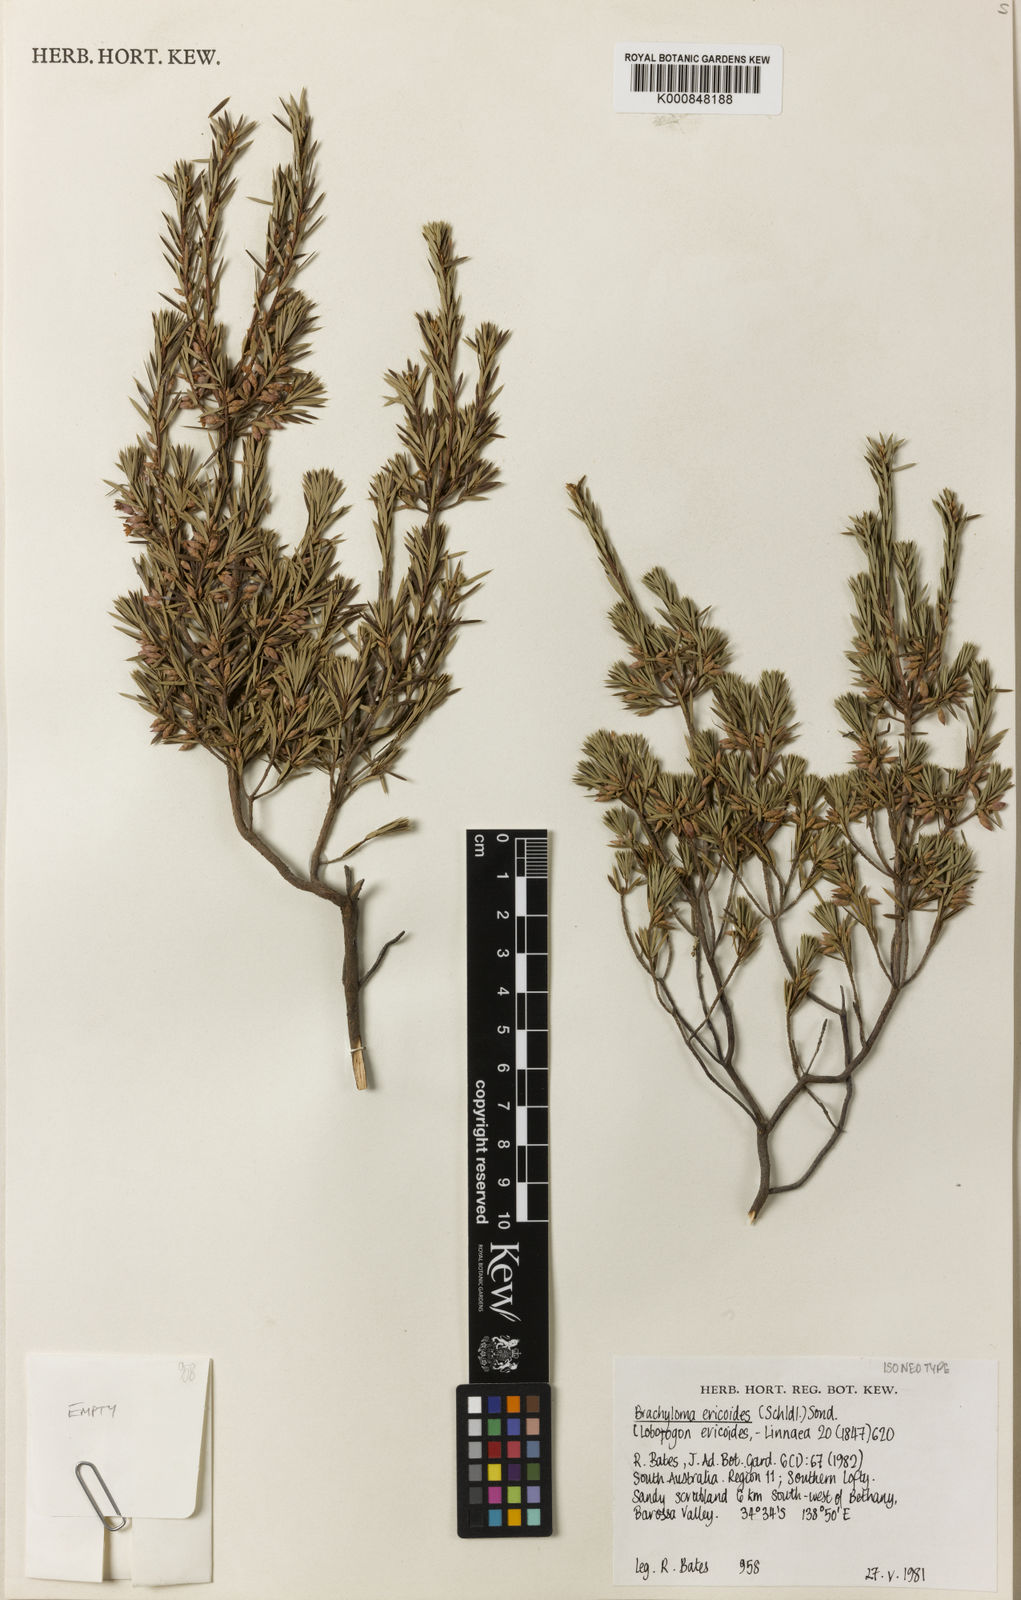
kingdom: Plantae
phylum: Tracheophyta
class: Magnoliopsida
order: Ericales
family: Ericaceae
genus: Brachyloma
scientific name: Brachyloma ericoides
